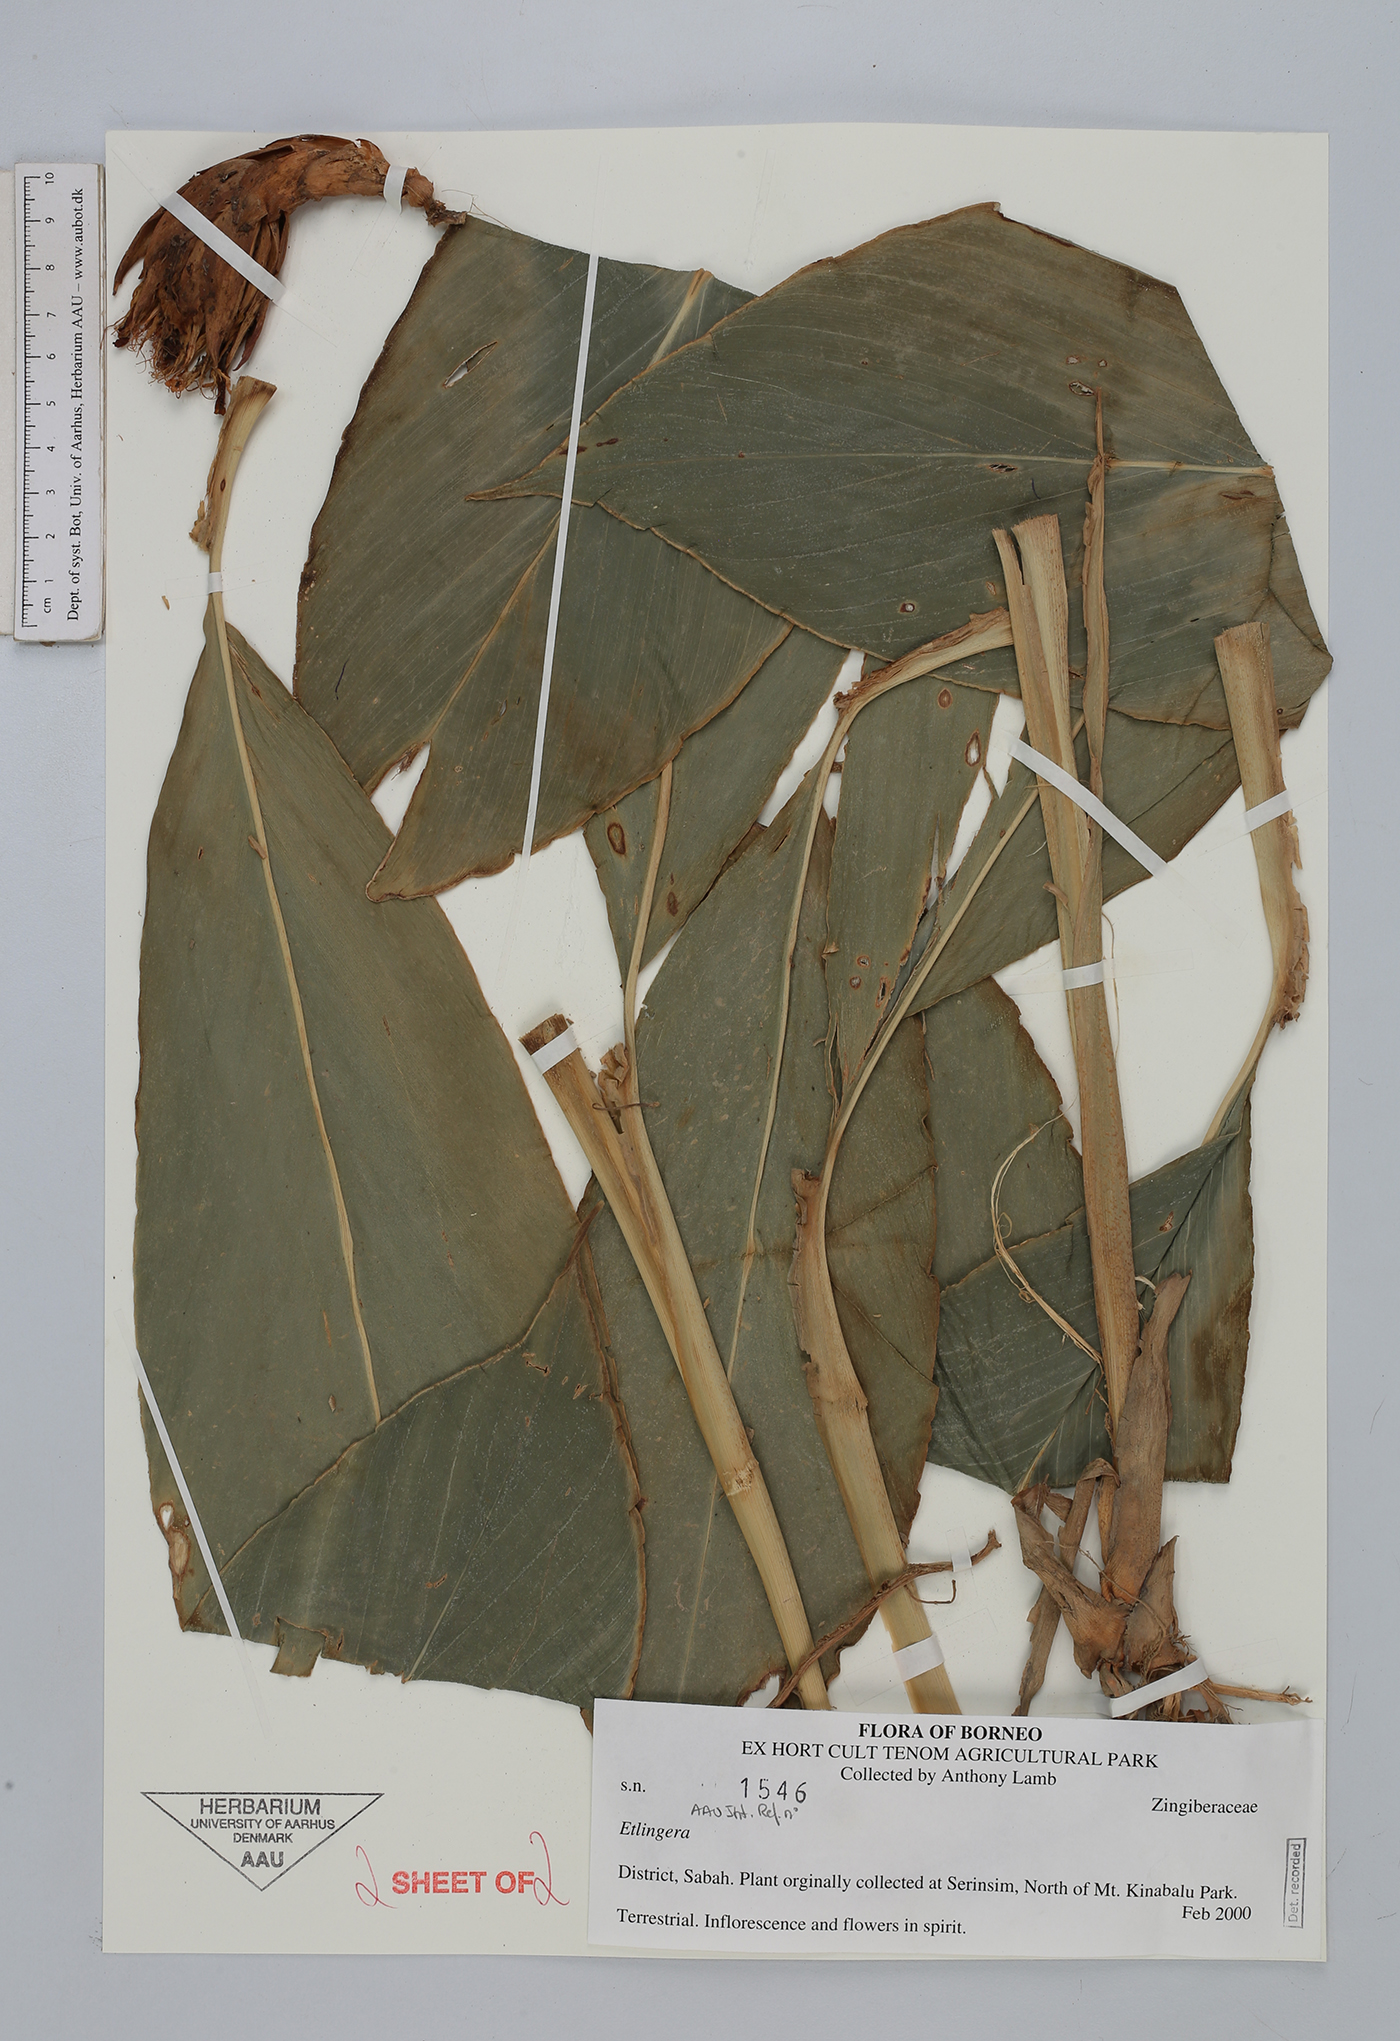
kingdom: Plantae
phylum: Tracheophyta
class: Liliopsida
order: Zingiberales
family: Zingiberaceae
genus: Etlingera
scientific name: Etlingera
